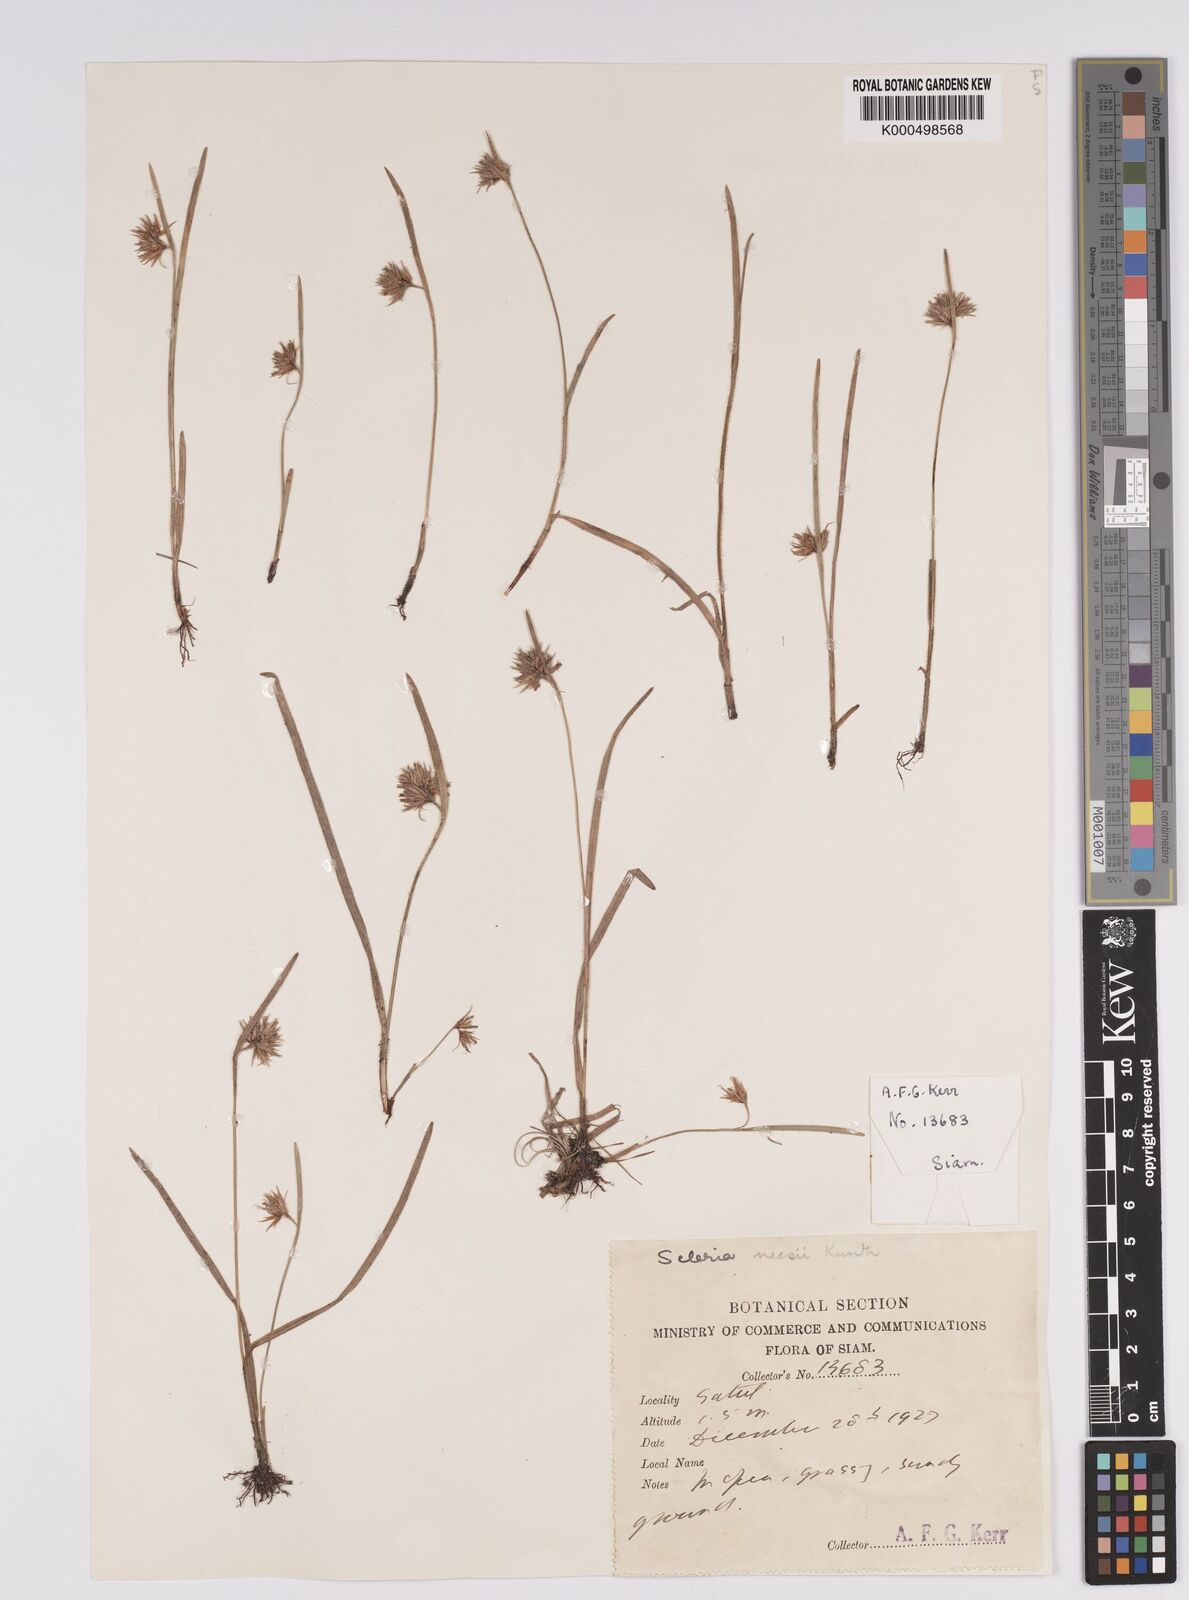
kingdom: Plantae
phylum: Tracheophyta
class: Liliopsida
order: Poales
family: Cyperaceae
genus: Scleria
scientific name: Scleria neesii
